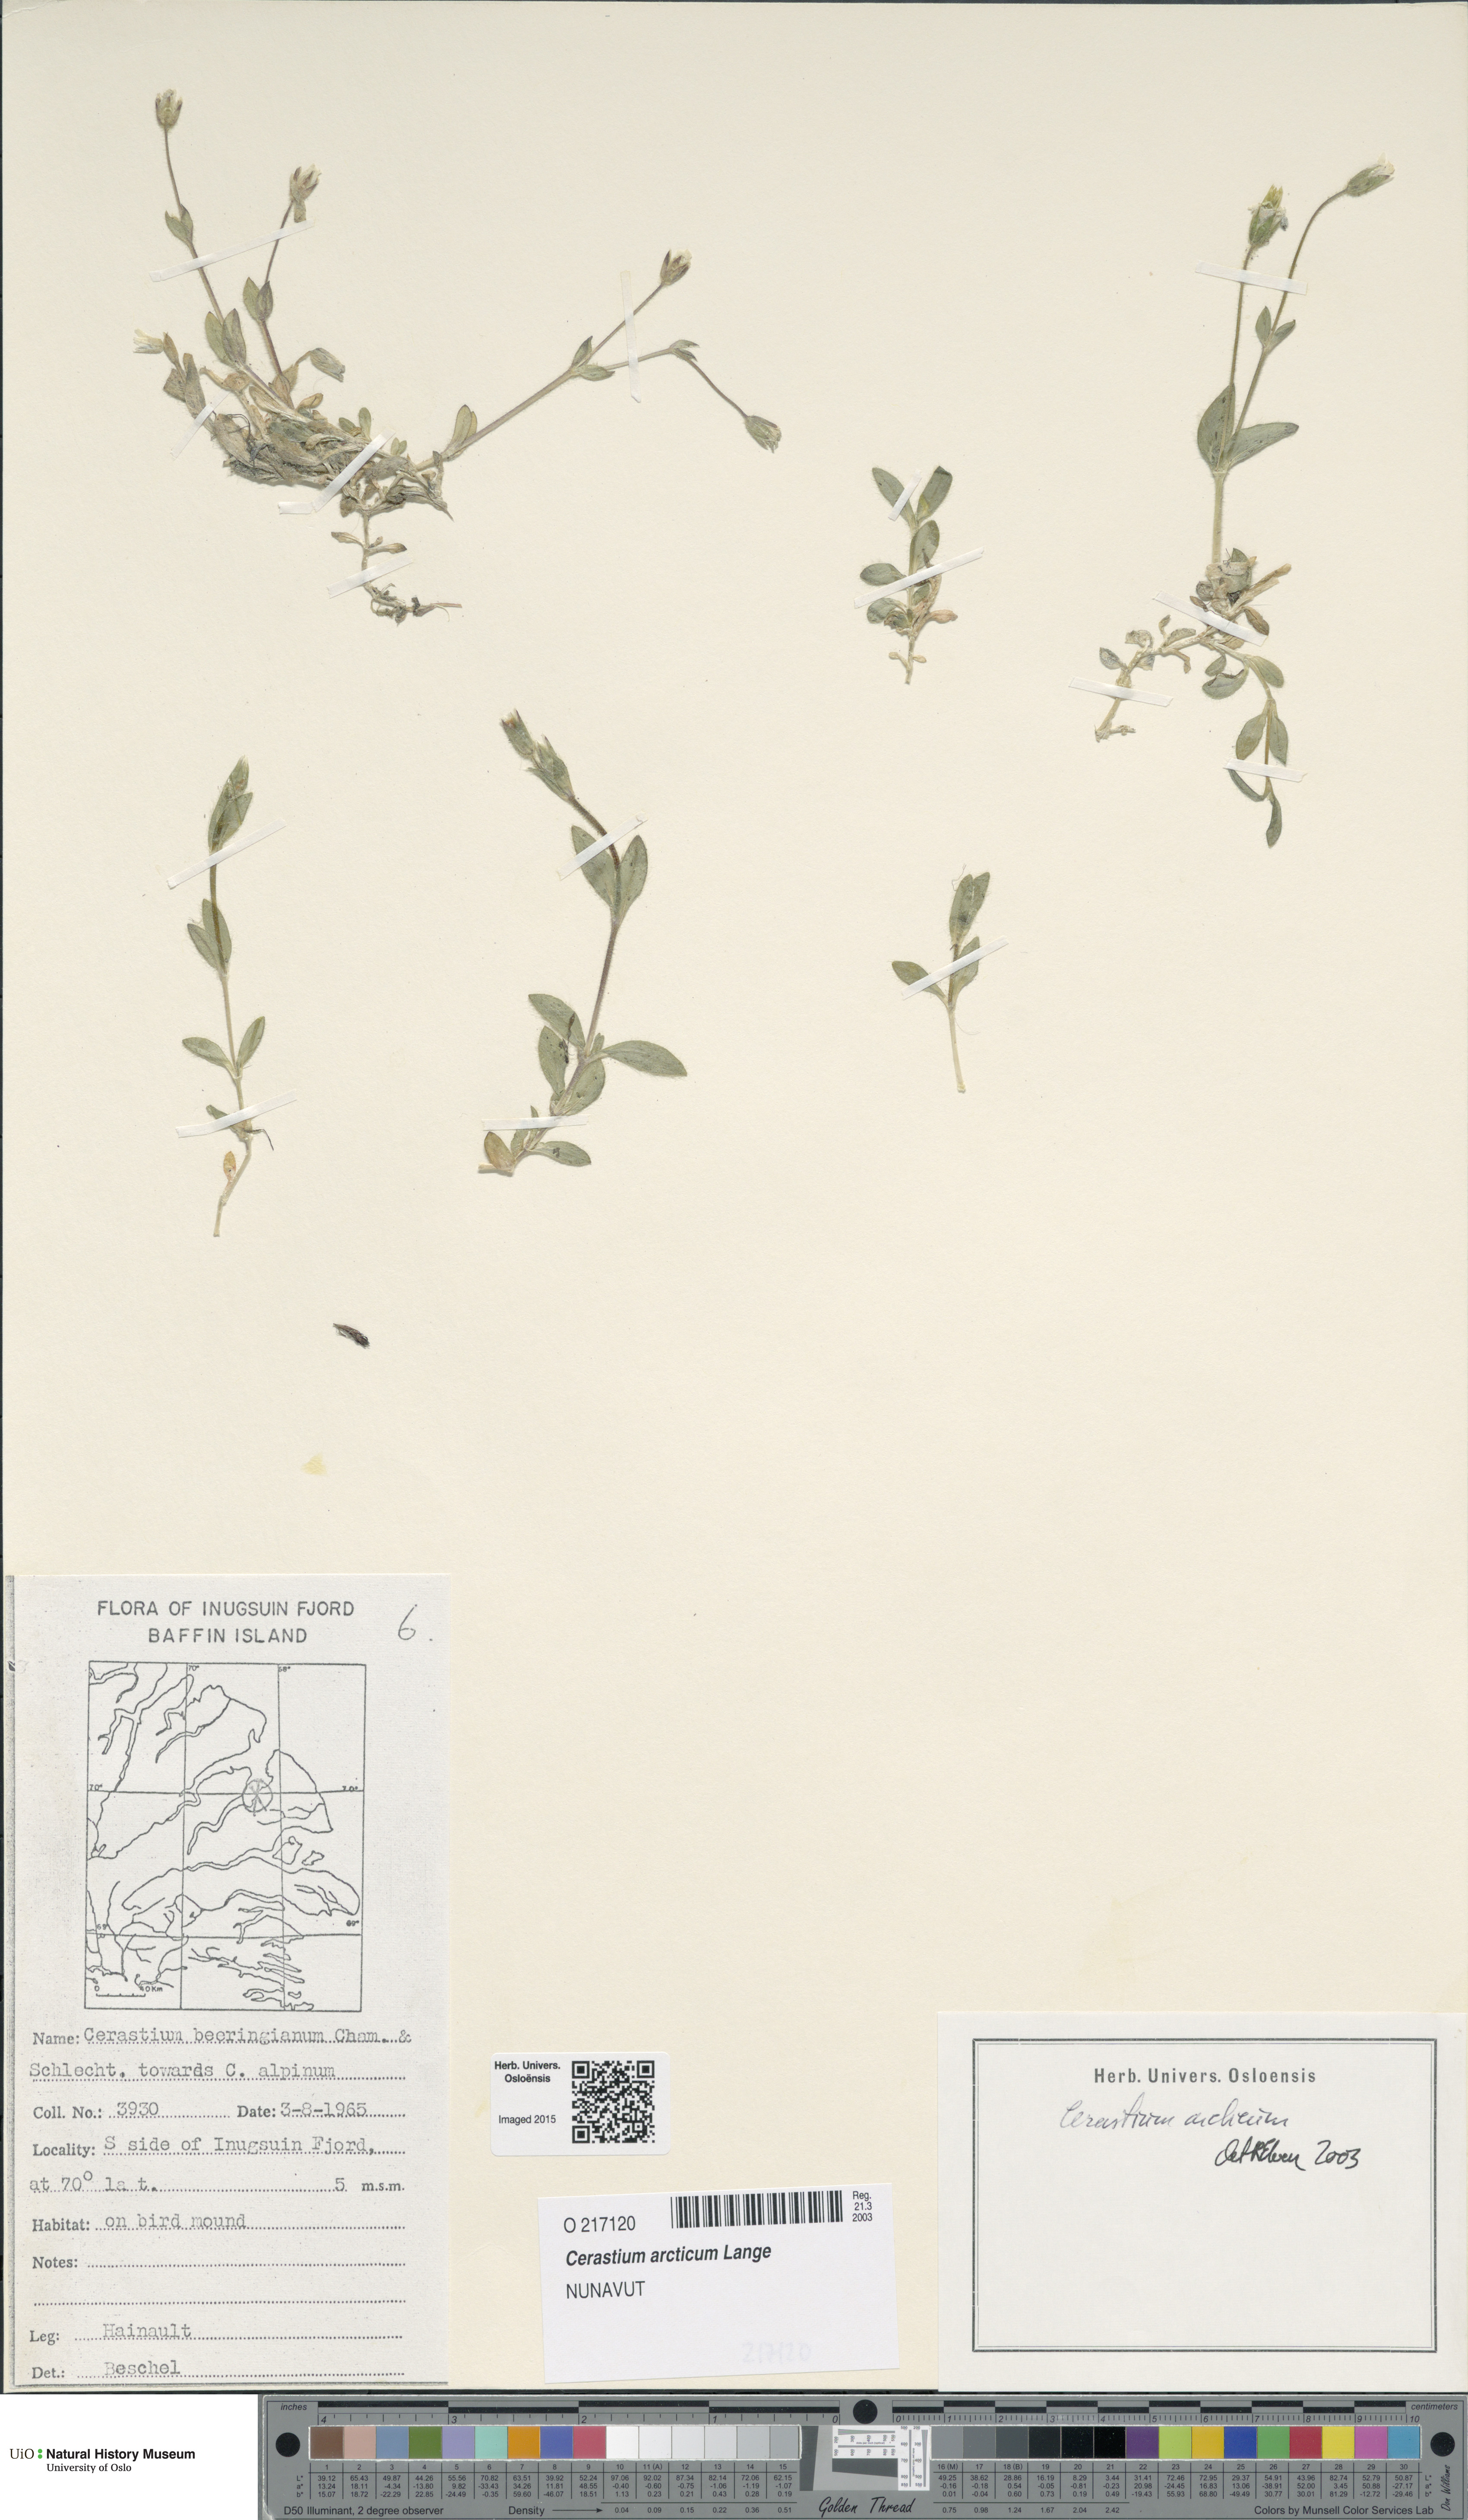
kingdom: Plantae
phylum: Tracheophyta
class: Magnoliopsida
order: Caryophyllales
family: Caryophyllaceae
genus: Cerastium
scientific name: Cerastium arcticum
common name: Arctic mouse-ear
